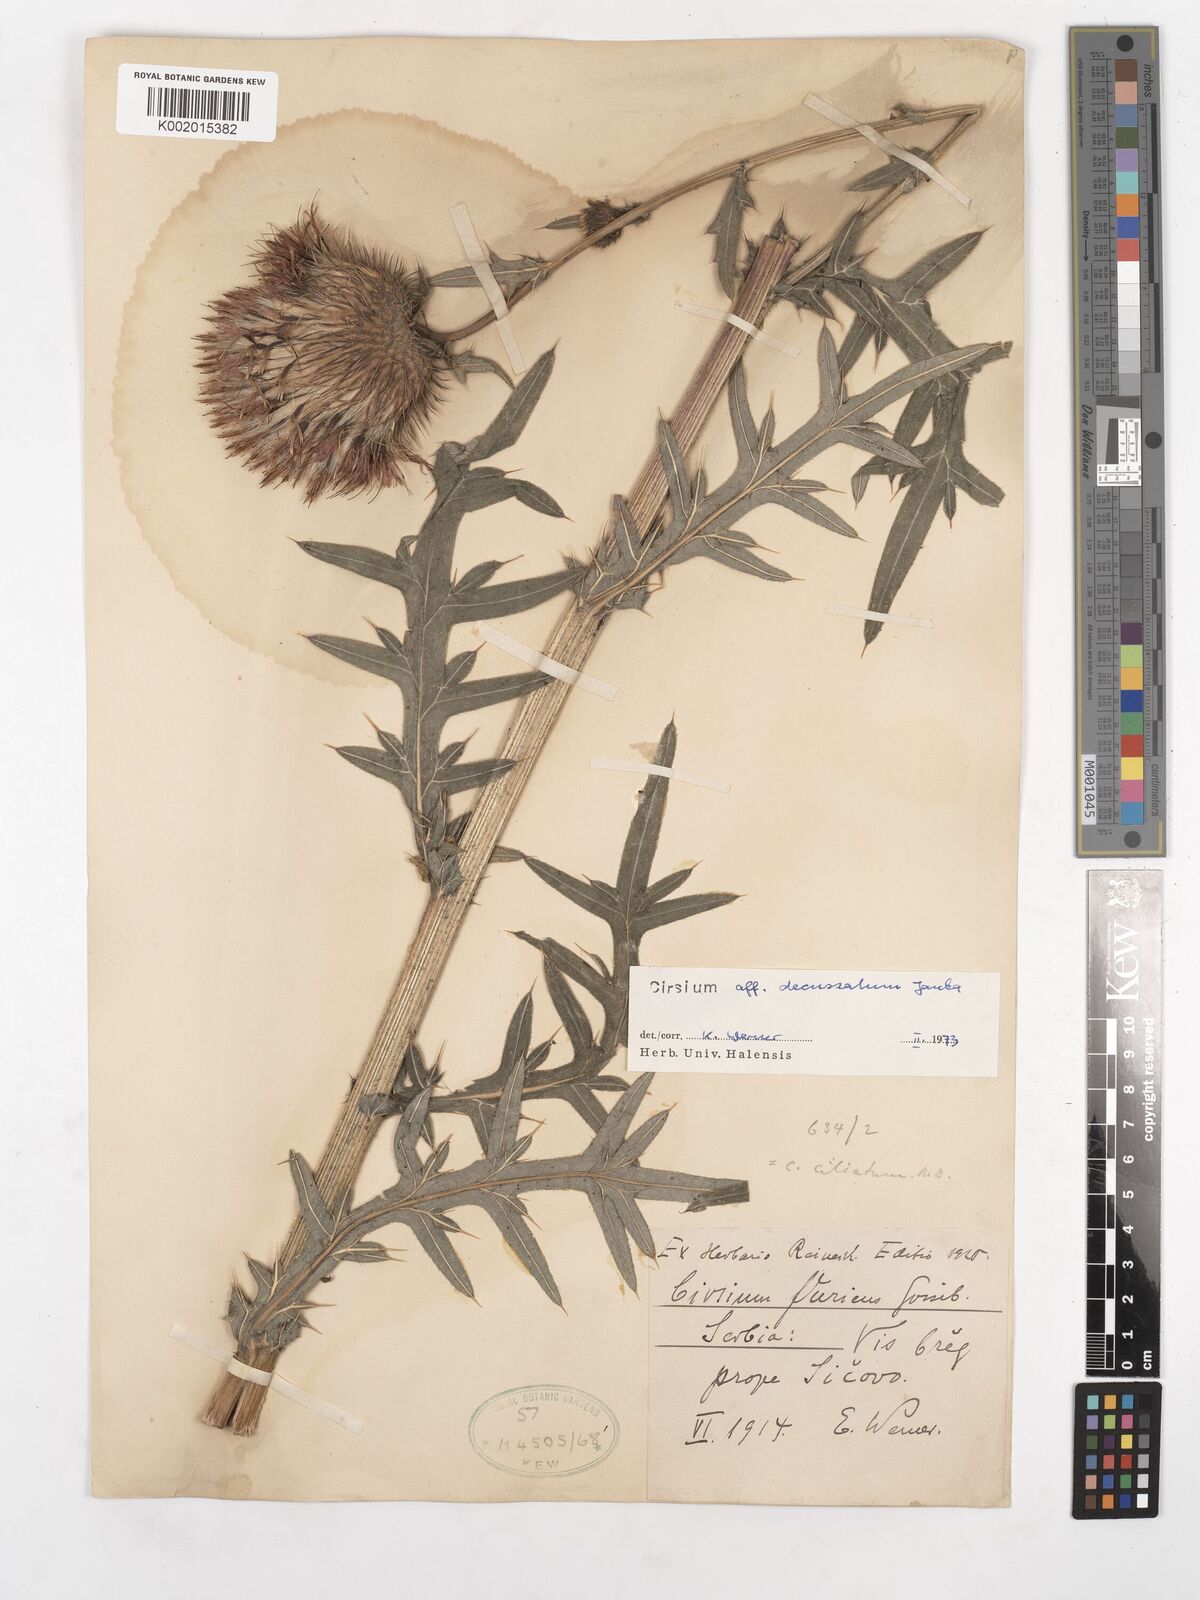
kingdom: Plantae
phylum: Tracheophyta
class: Magnoliopsida
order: Asterales
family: Asteraceae
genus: Lophiolepis
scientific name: Lophiolepis decussata
